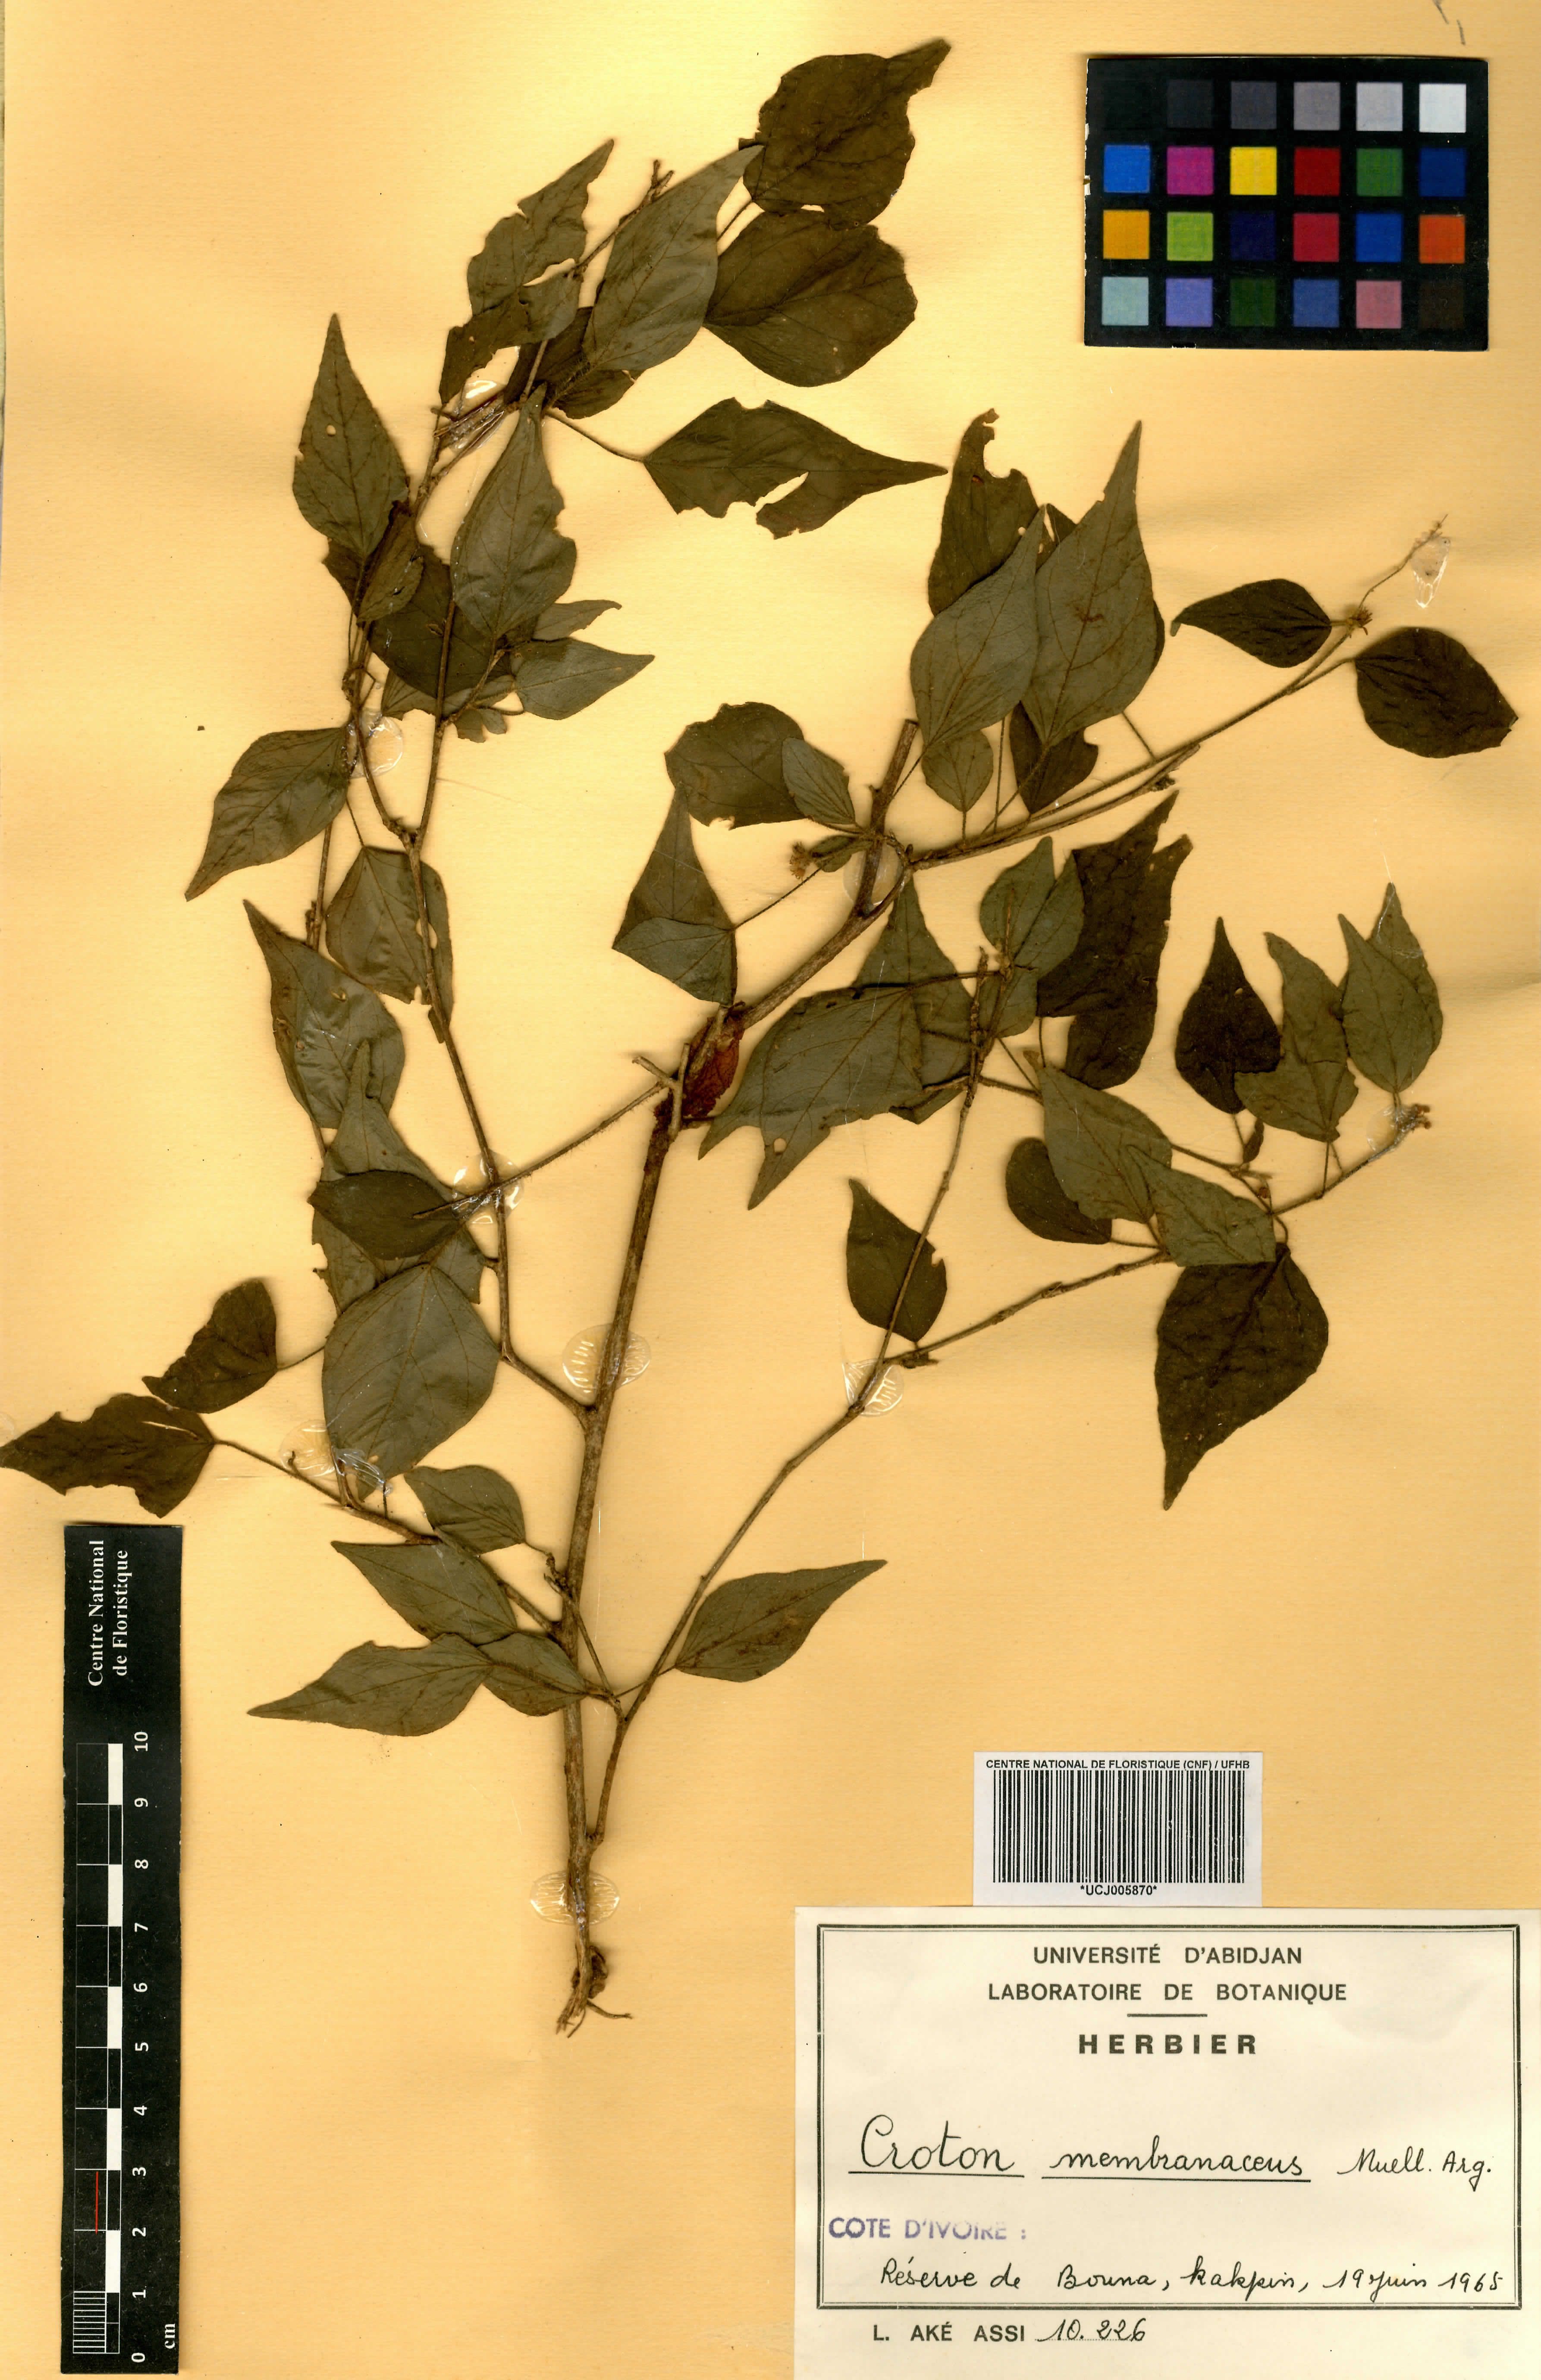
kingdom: Plantae
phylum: Tracheophyta
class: Magnoliopsida
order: Malpighiales
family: Euphorbiaceae
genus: Croton
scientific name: Croton membranaceus
